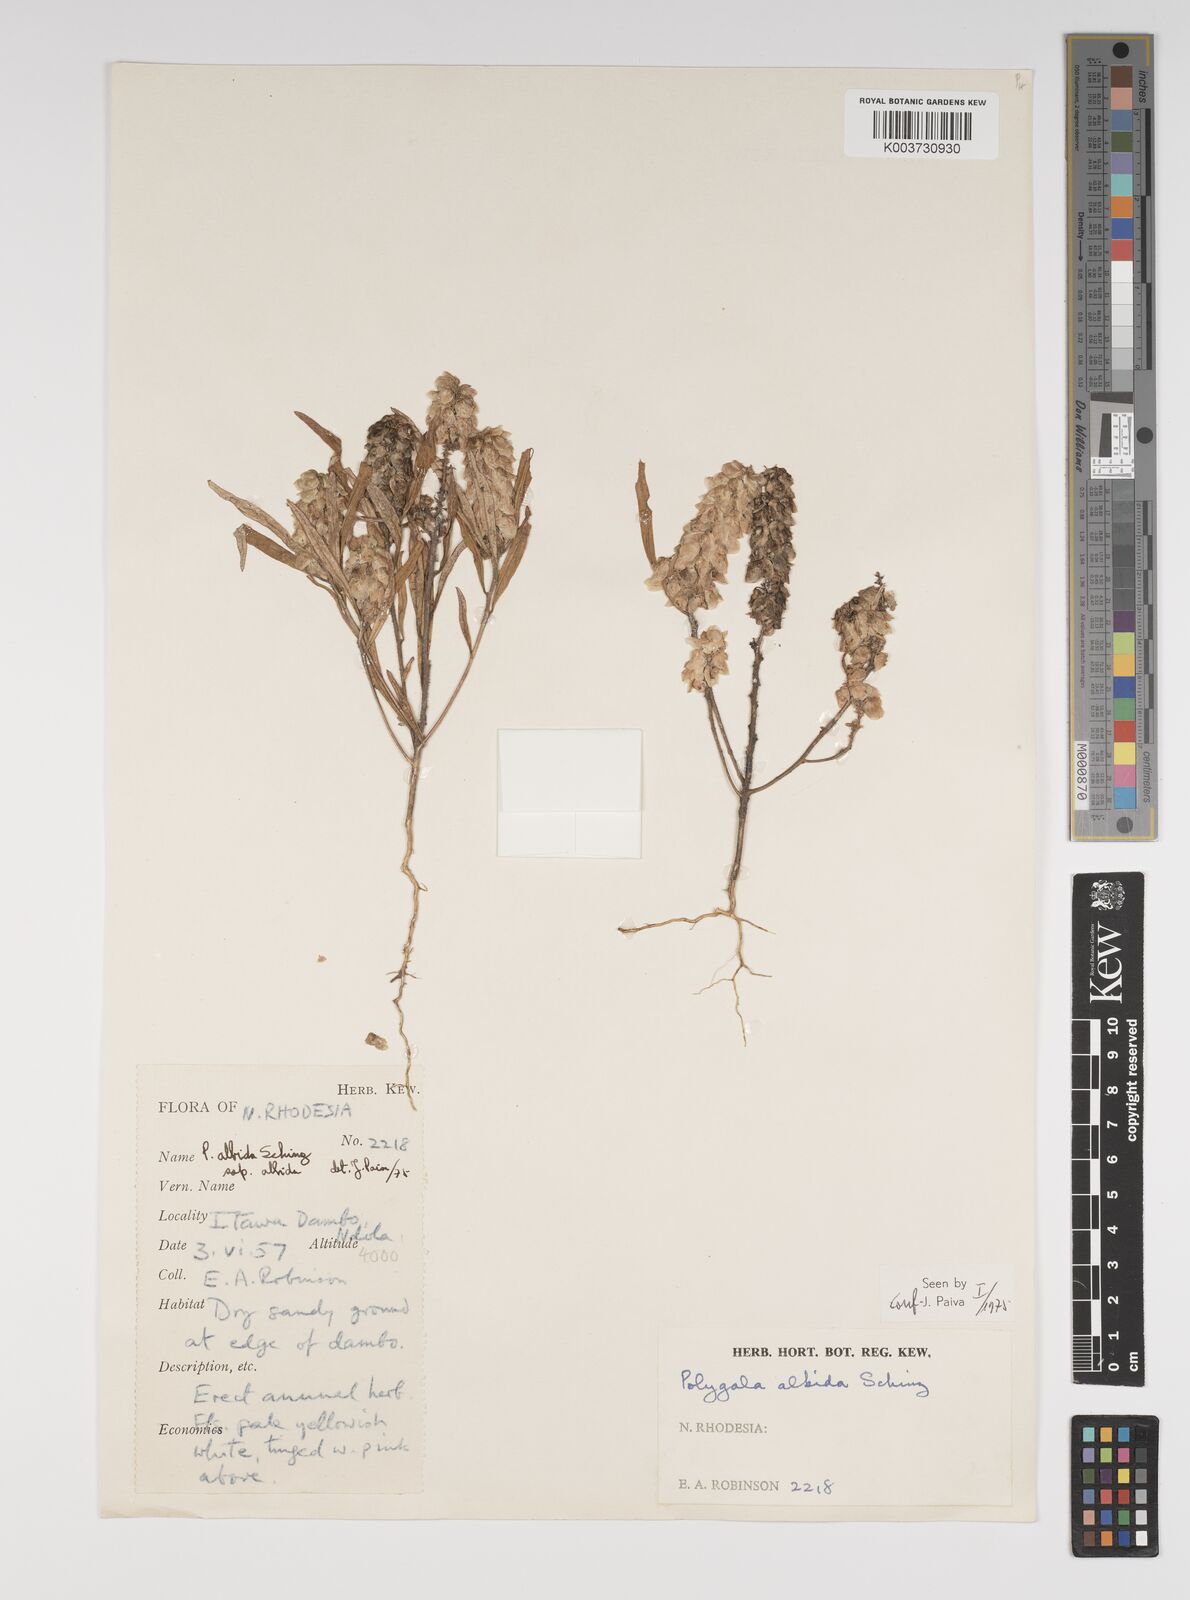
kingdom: Plantae
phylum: Tracheophyta
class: Magnoliopsida
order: Fabales
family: Polygalaceae
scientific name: Polygalaceae
